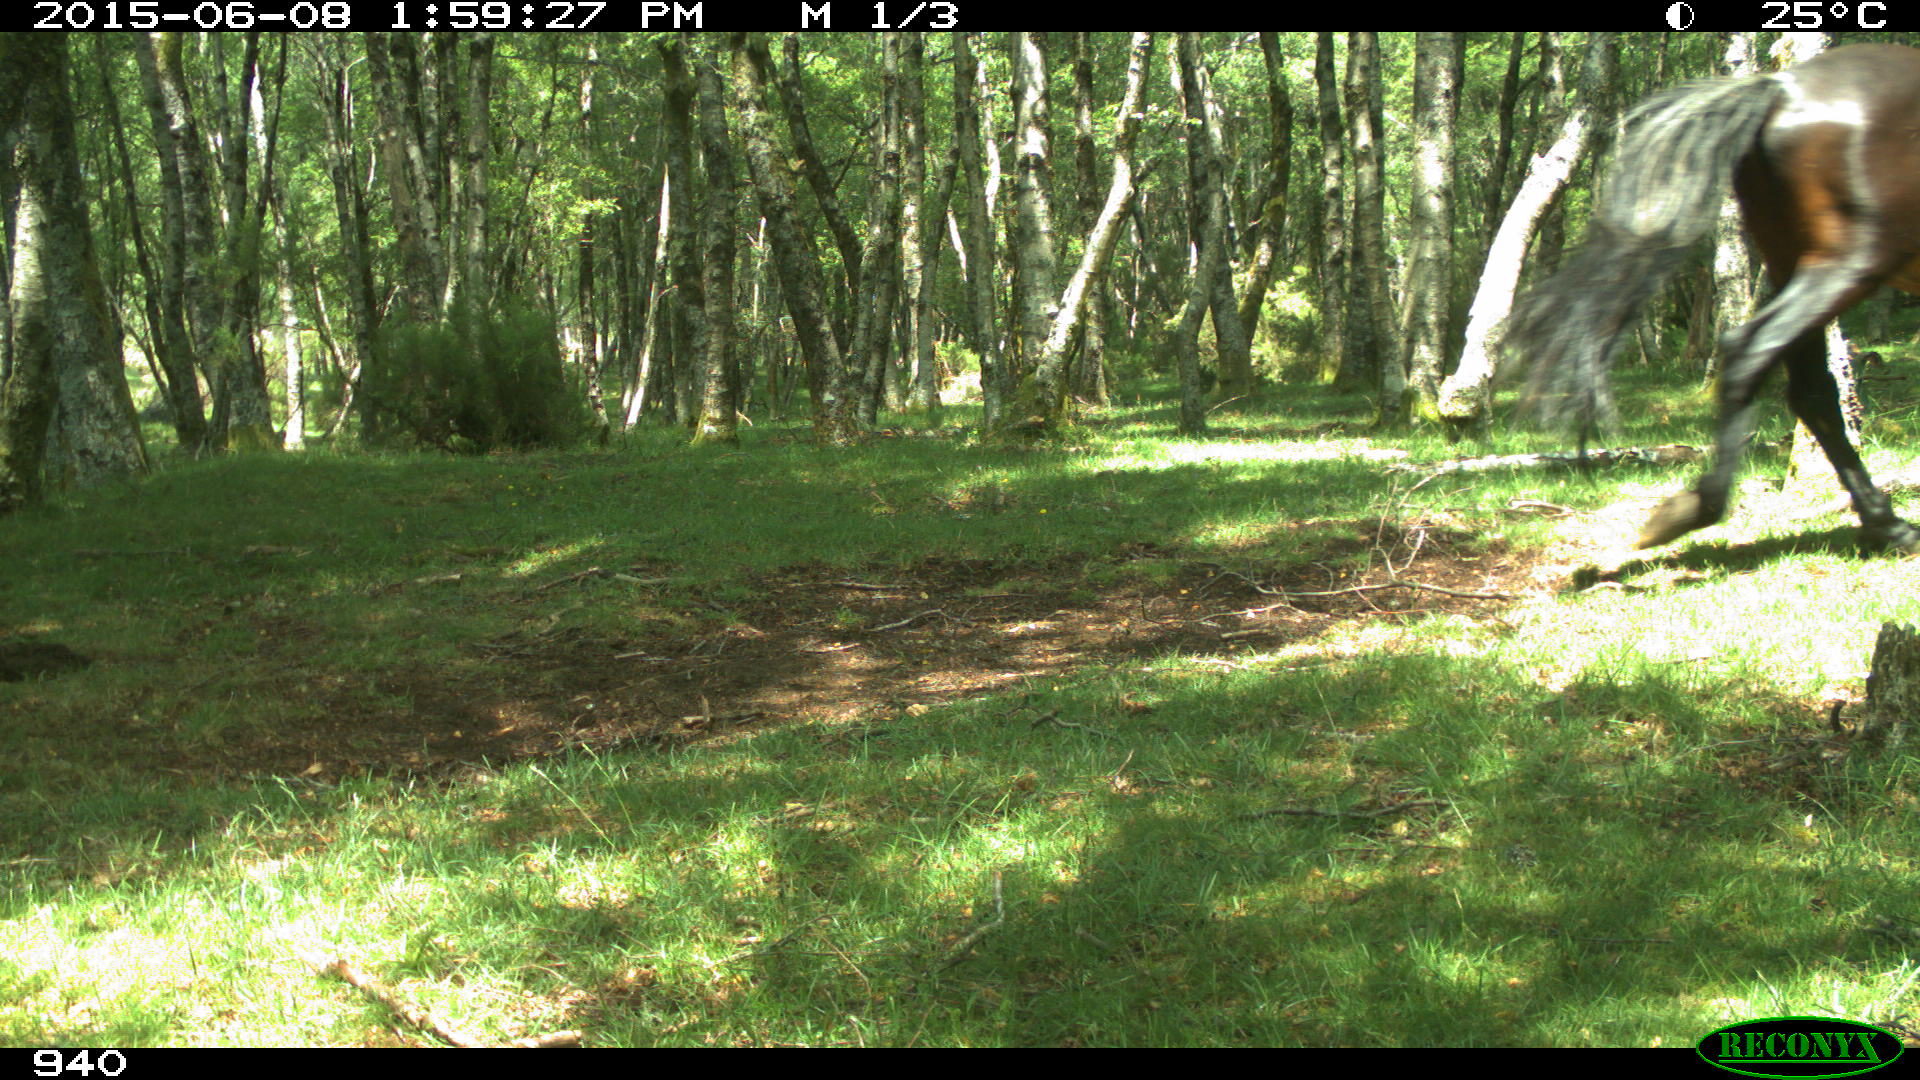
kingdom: Animalia
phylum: Chordata
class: Mammalia
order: Perissodactyla
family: Equidae
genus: Equus
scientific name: Equus caballus
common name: Horse
